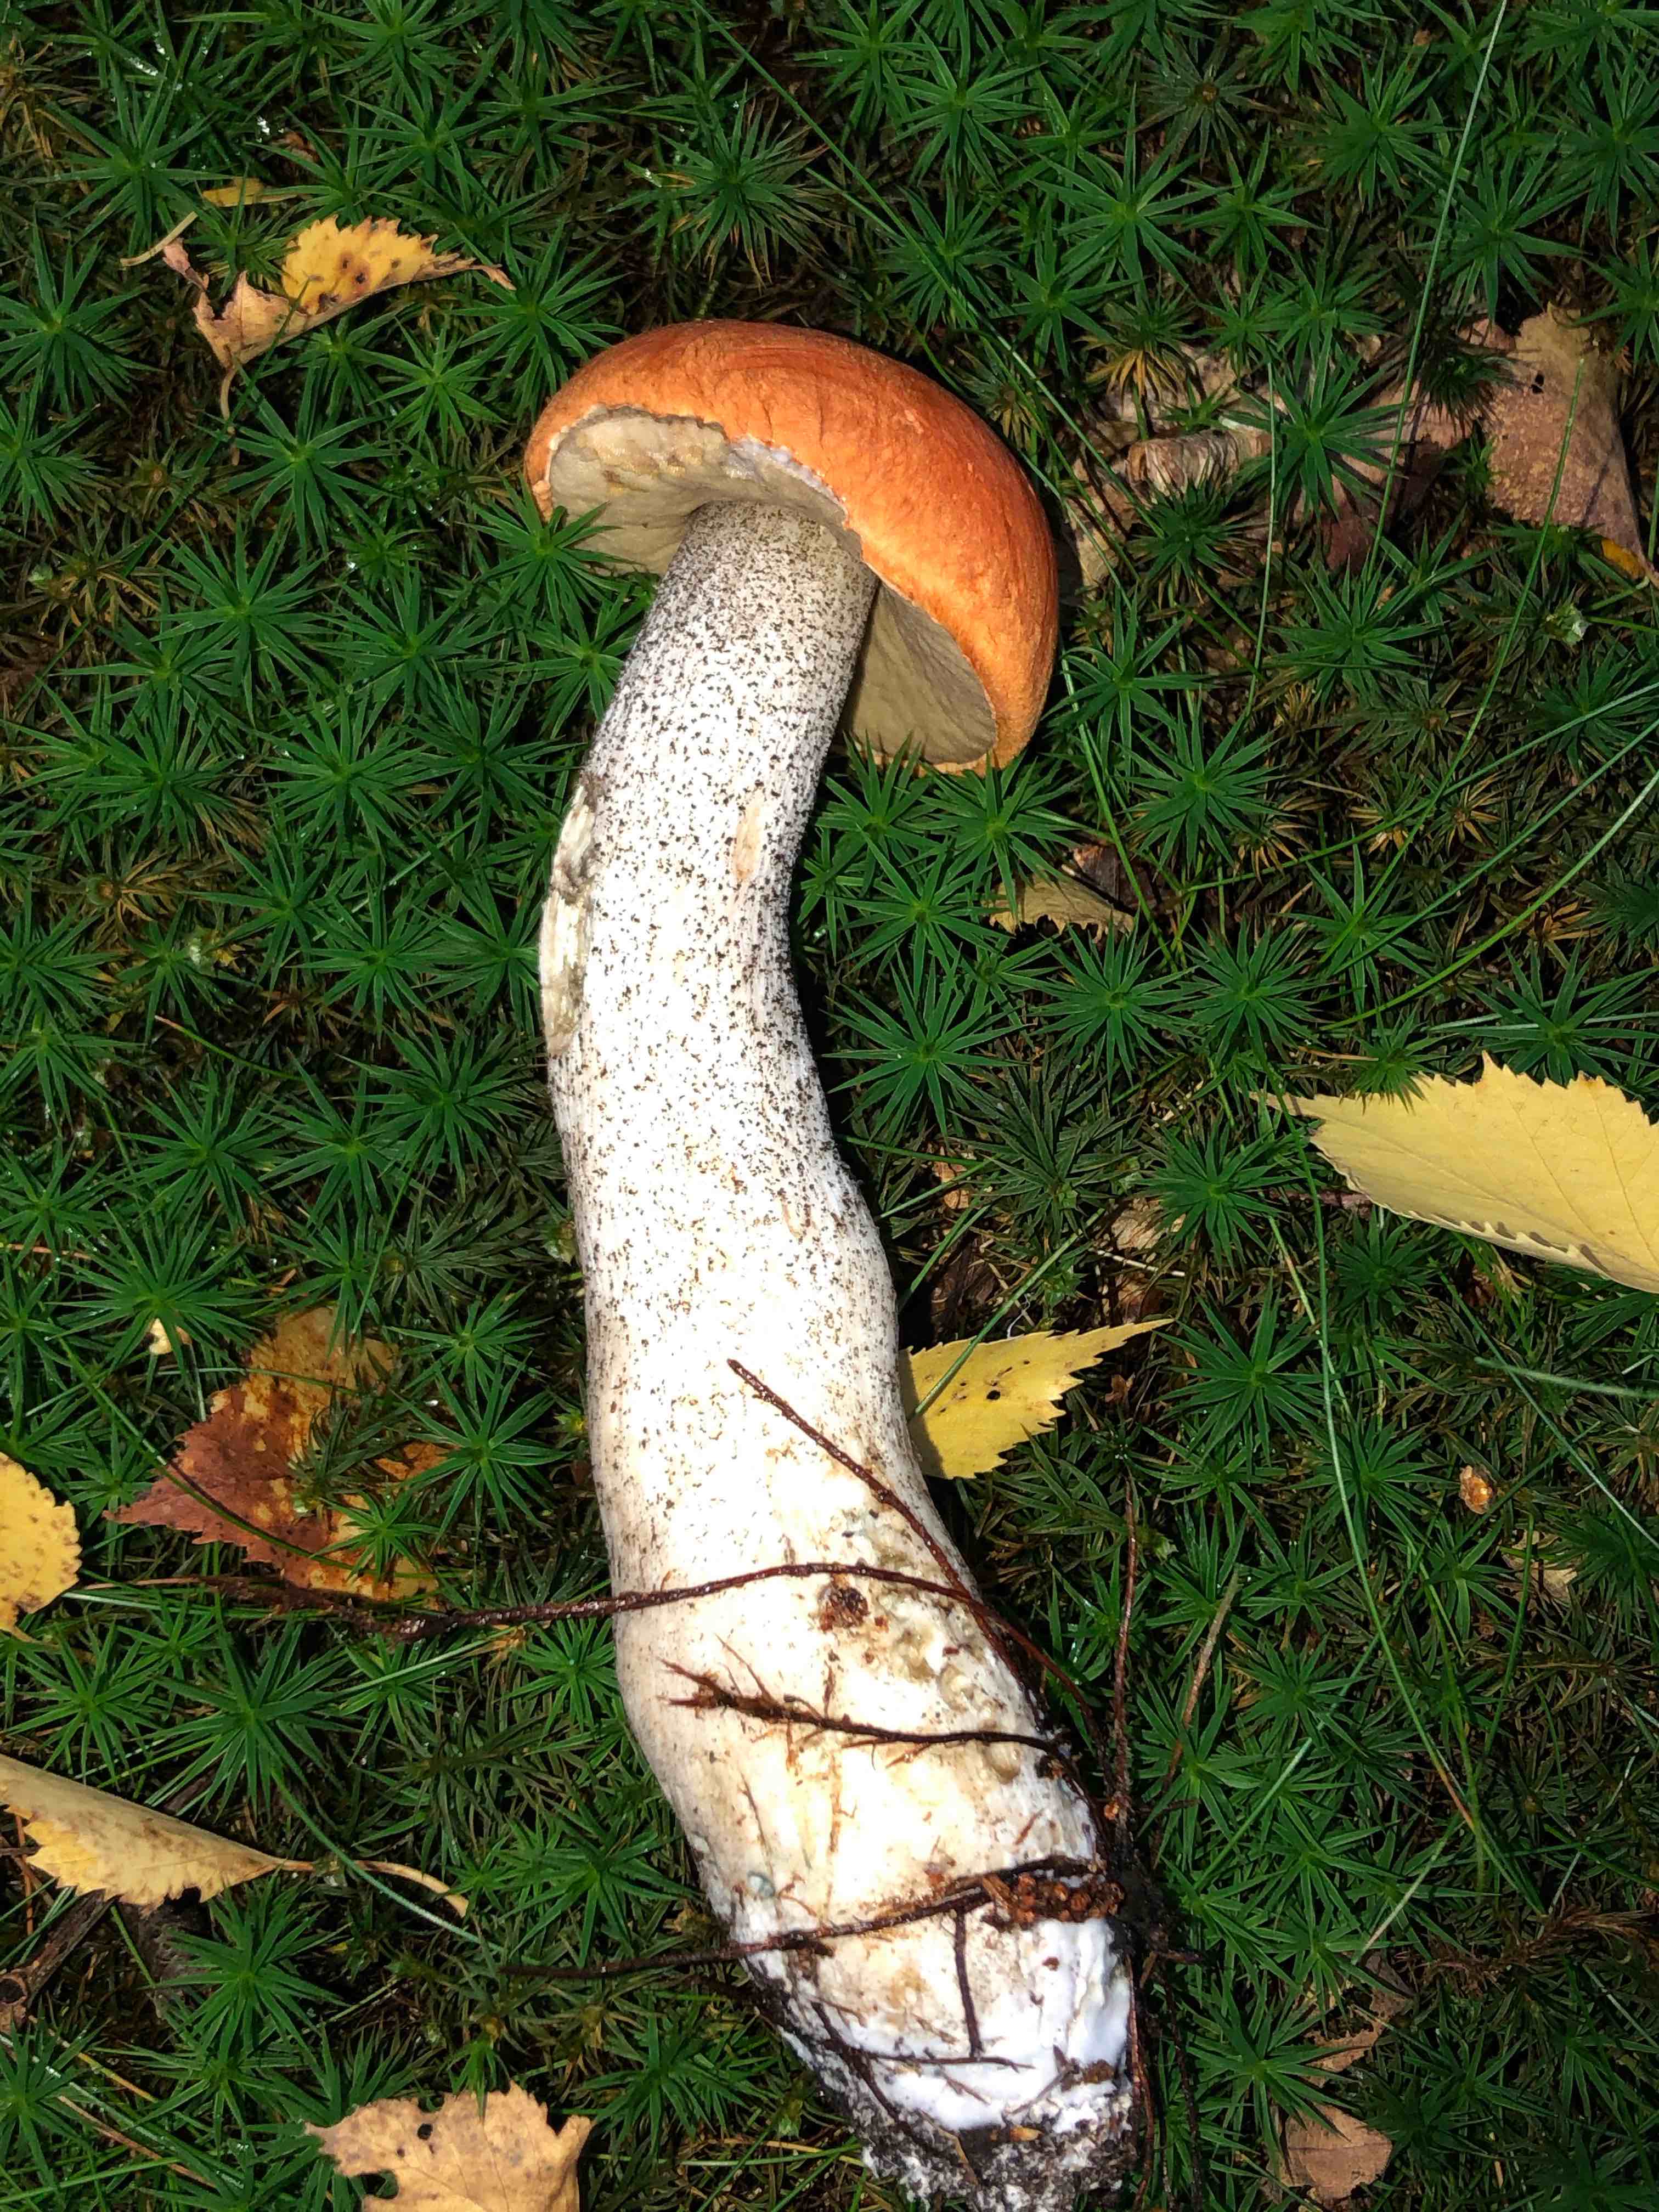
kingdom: Fungi
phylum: Basidiomycota
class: Agaricomycetes
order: Boletales
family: Boletaceae
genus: Leccinum
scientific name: Leccinum versipelle
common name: orange skælrørhat
